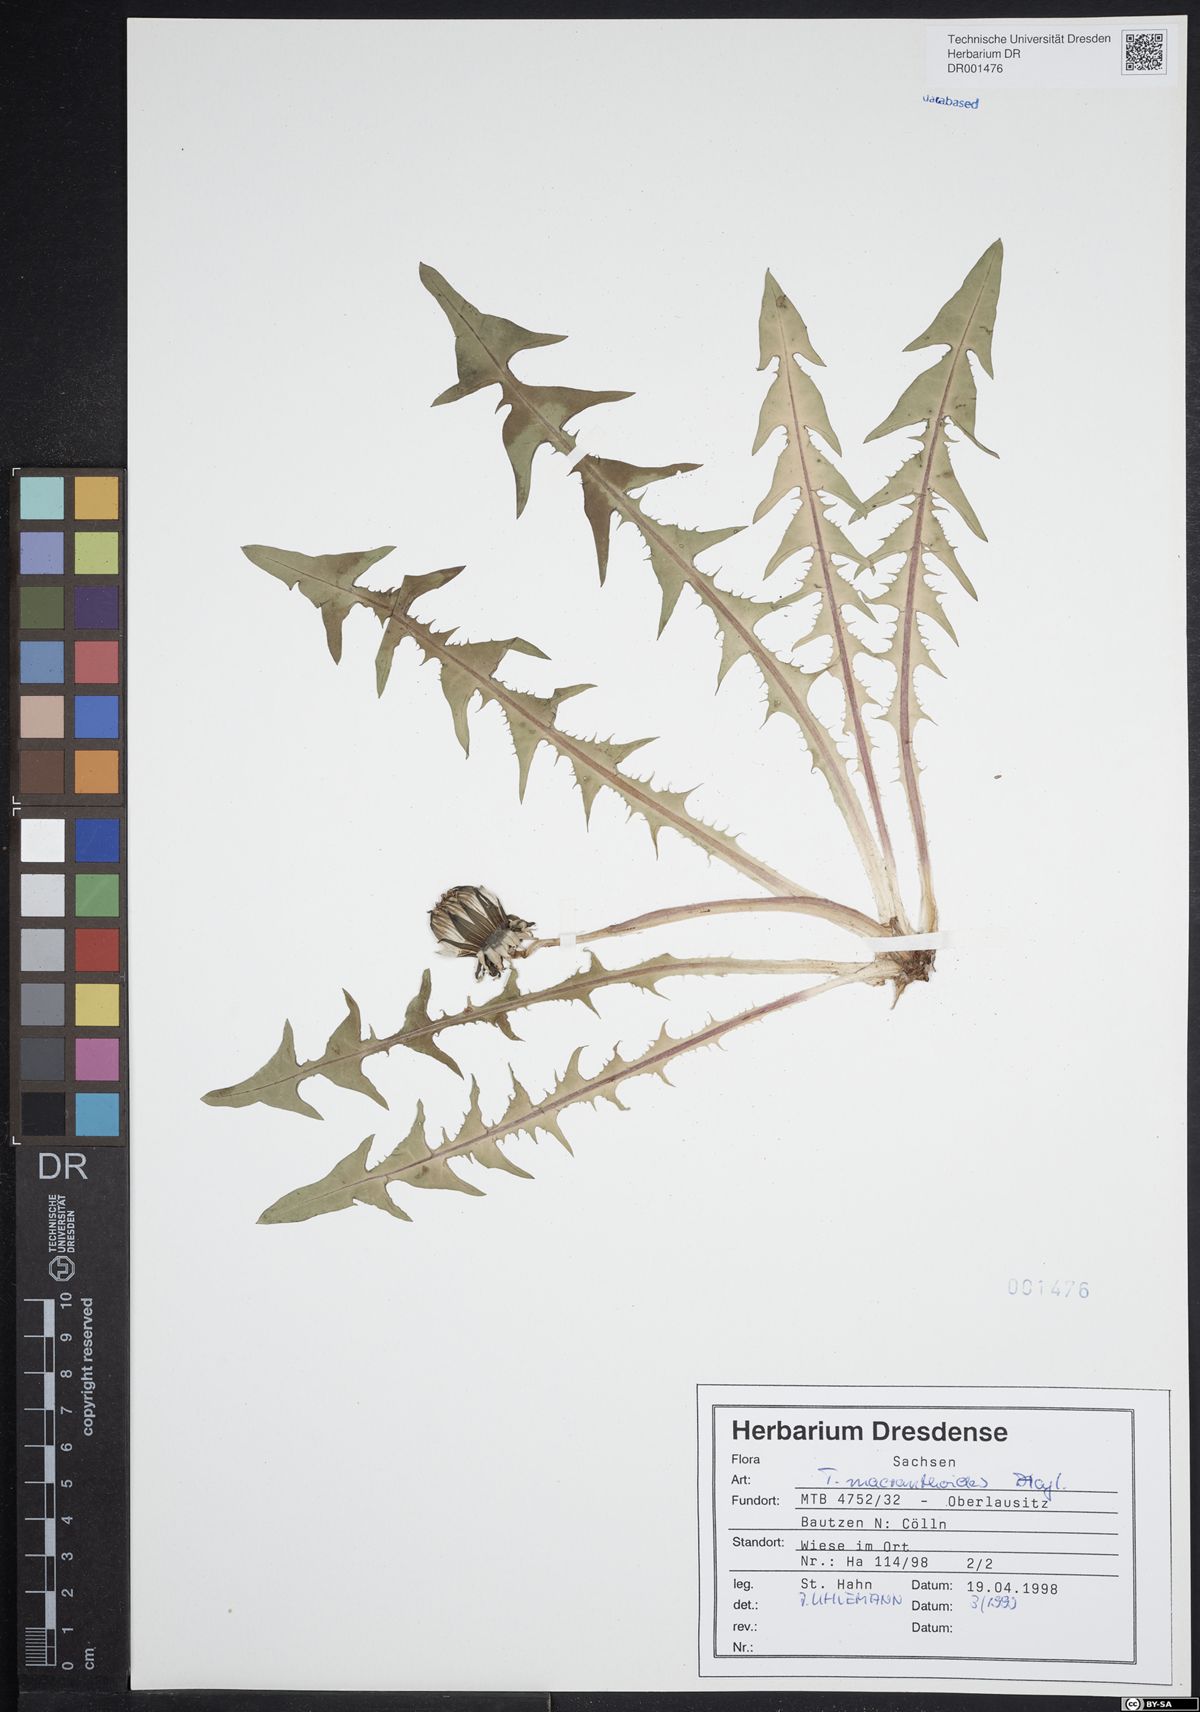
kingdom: Plantae
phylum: Tracheophyta
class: Magnoliopsida
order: Asterales
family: Asteraceae
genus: Taraxacum
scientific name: Taraxacum macranthoides
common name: Large-flowered dandelion
